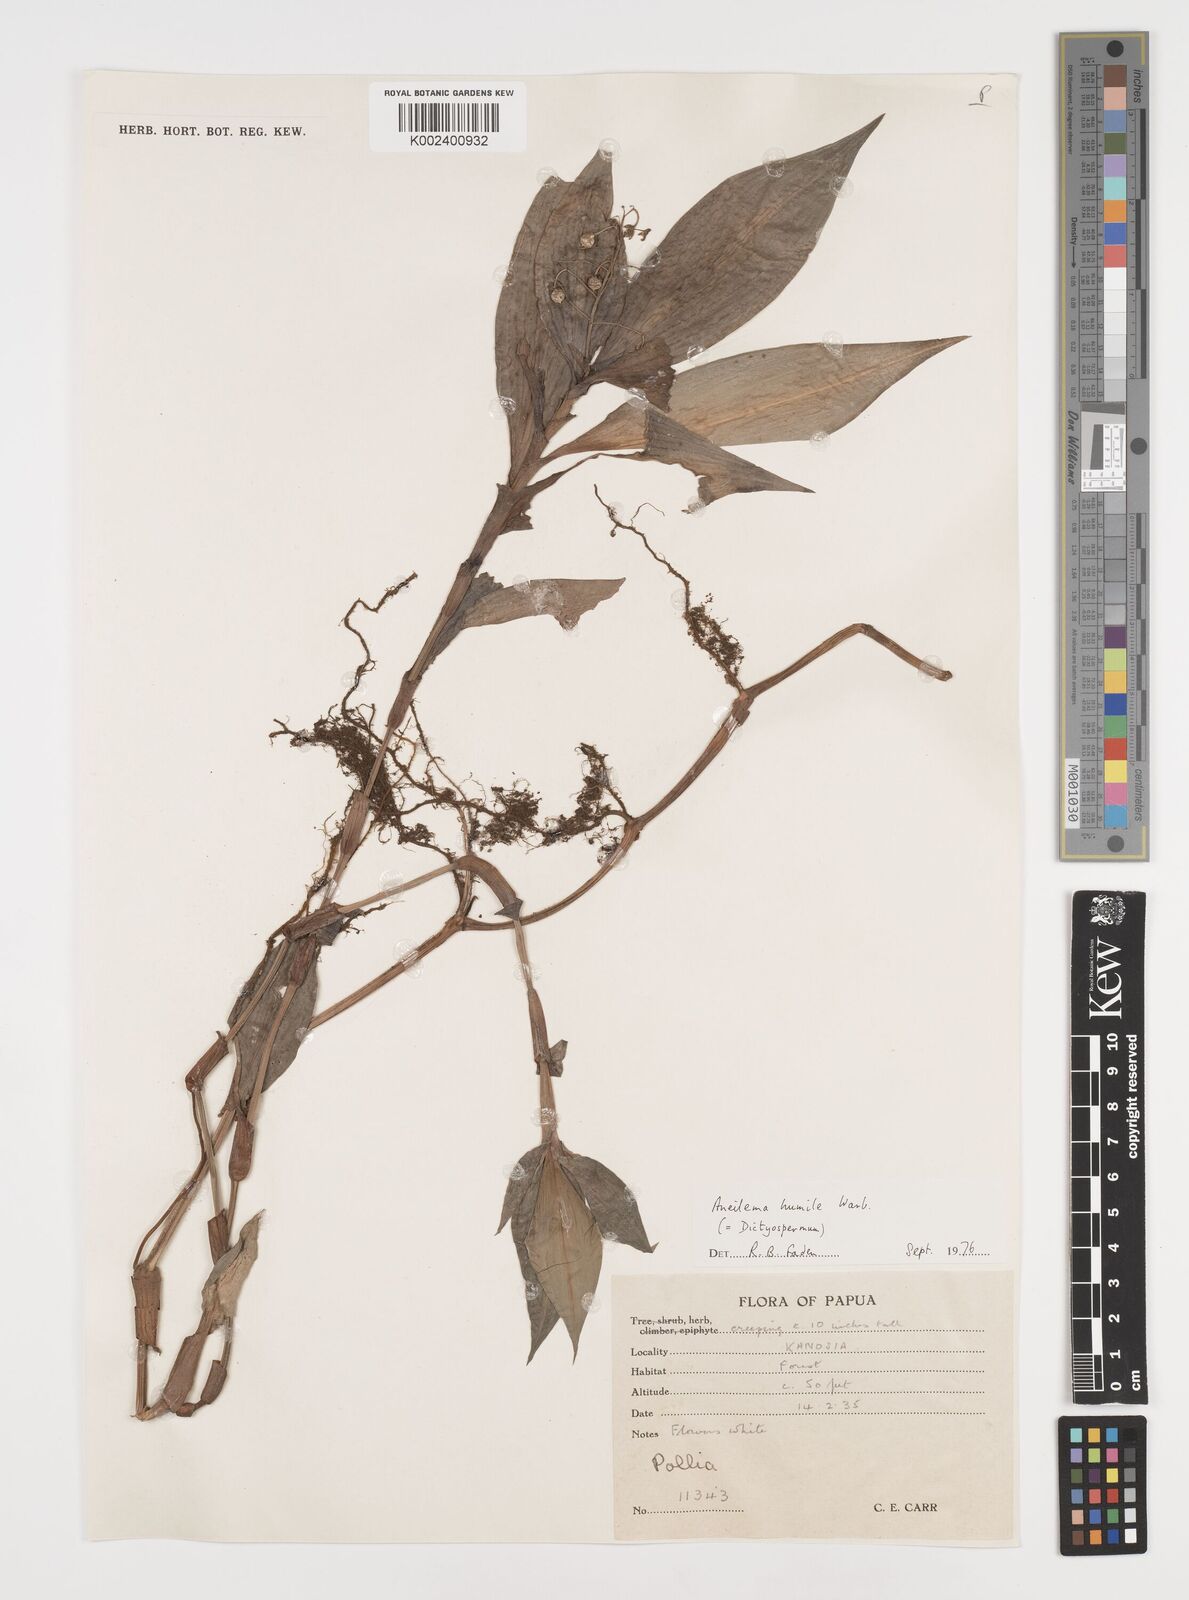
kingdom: Plantae
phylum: Tracheophyta
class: Liliopsida
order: Commelinales
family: Commelinaceae
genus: Dictyospermum
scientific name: Dictyospermum humile
